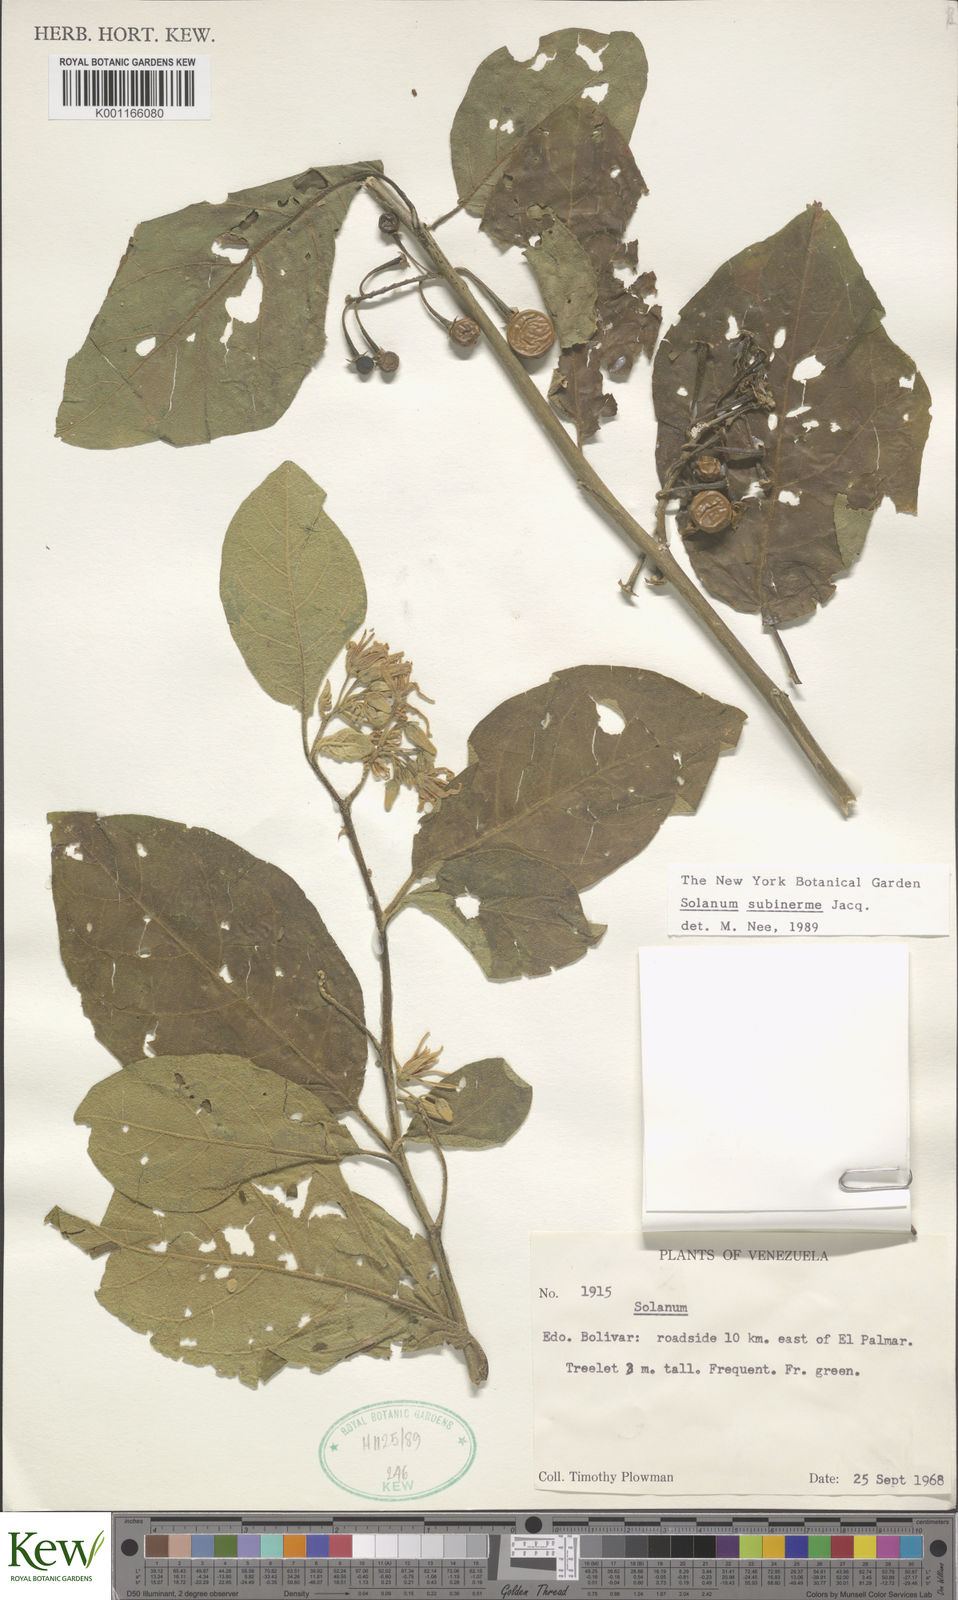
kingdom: Plantae
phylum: Tracheophyta
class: Magnoliopsida
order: Solanales
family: Solanaceae
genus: Solanum
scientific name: Solanum subinerme
